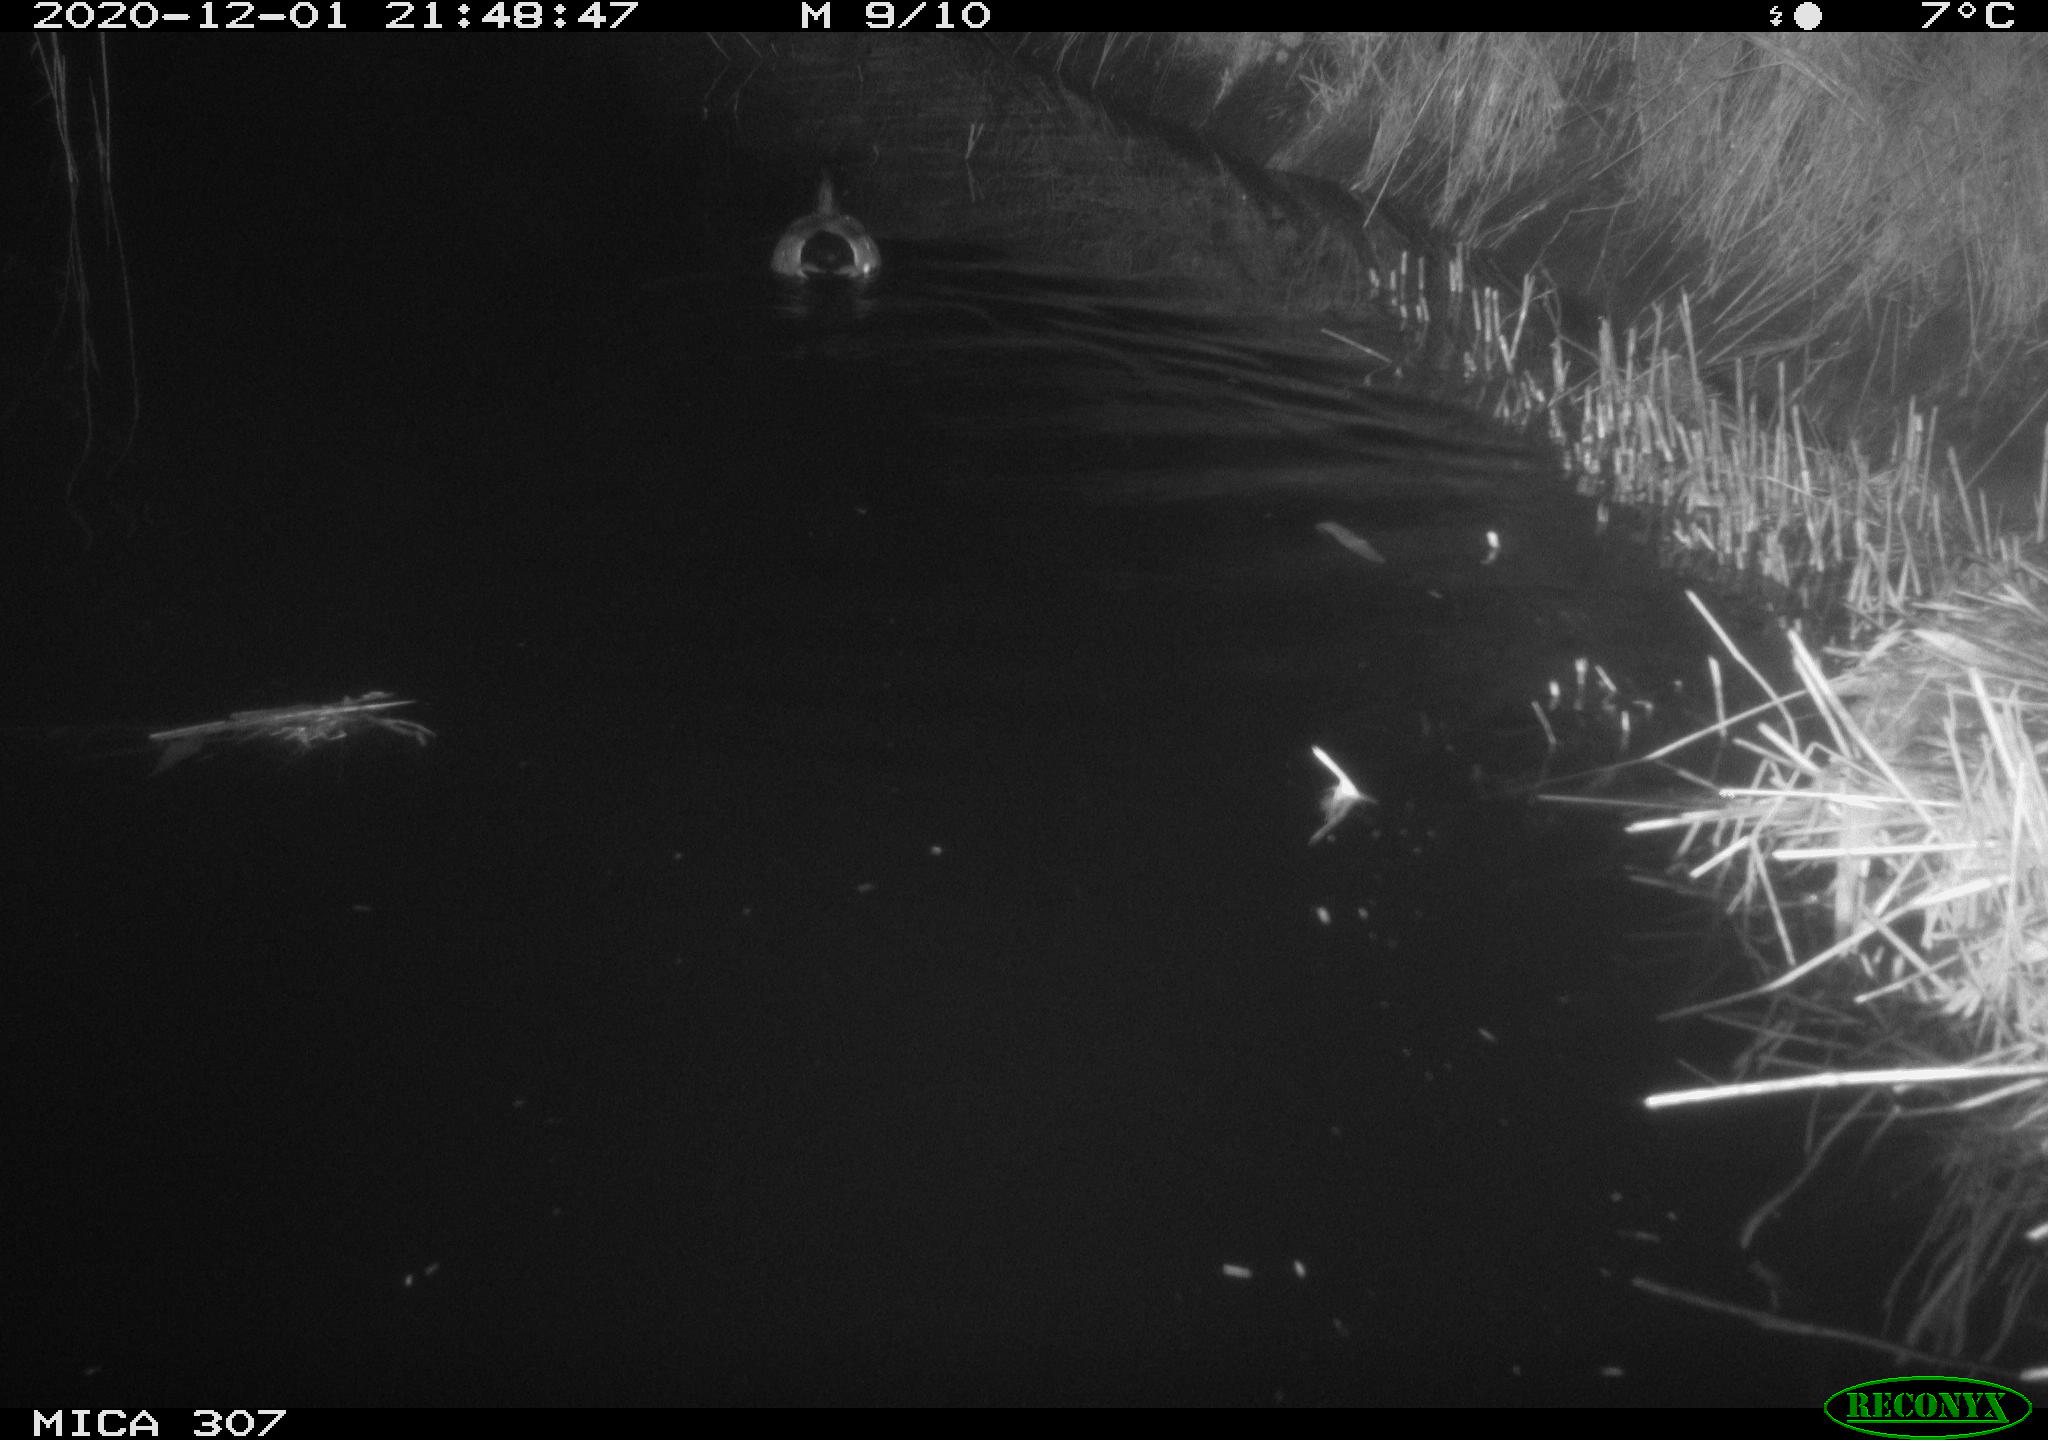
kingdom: Animalia
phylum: Chordata
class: Aves
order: Anseriformes
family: Anatidae
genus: Anas
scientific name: Anas platyrhynchos
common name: Mallard
